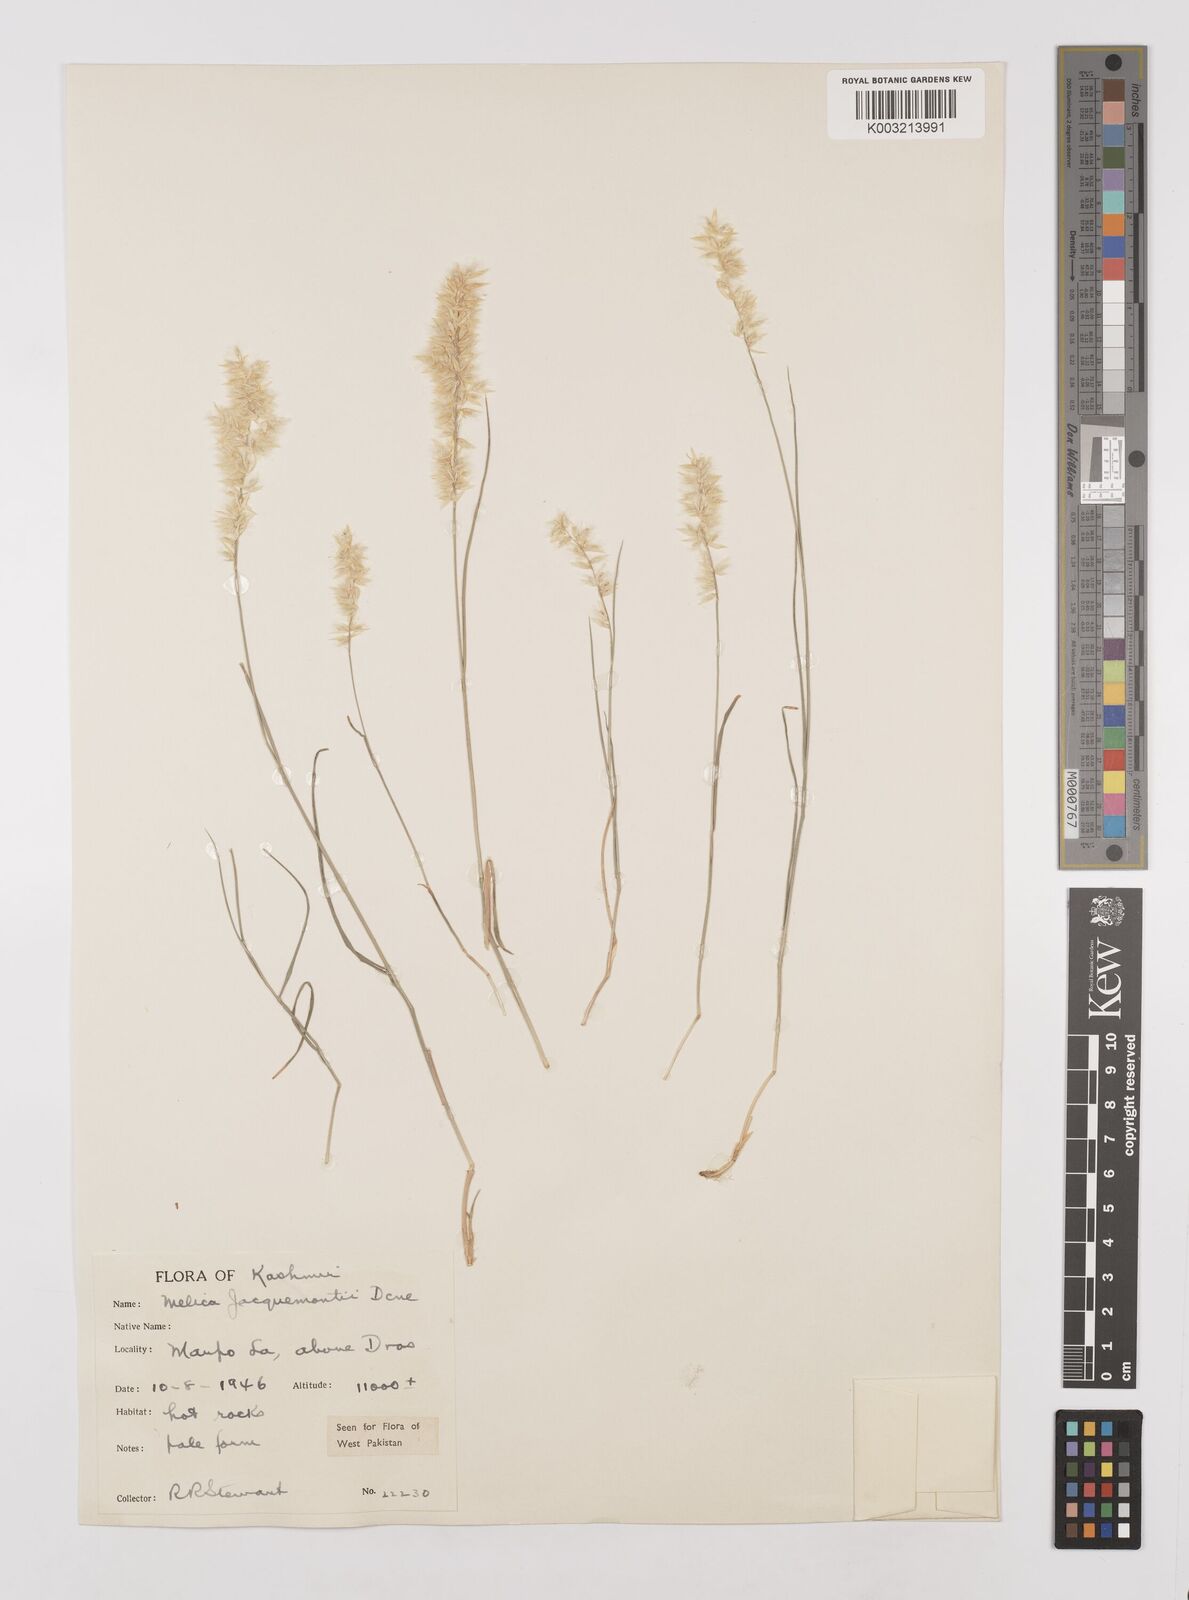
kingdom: Plantae
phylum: Tracheophyta
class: Liliopsida
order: Poales
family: Poaceae
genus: Melica
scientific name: Melica persica
